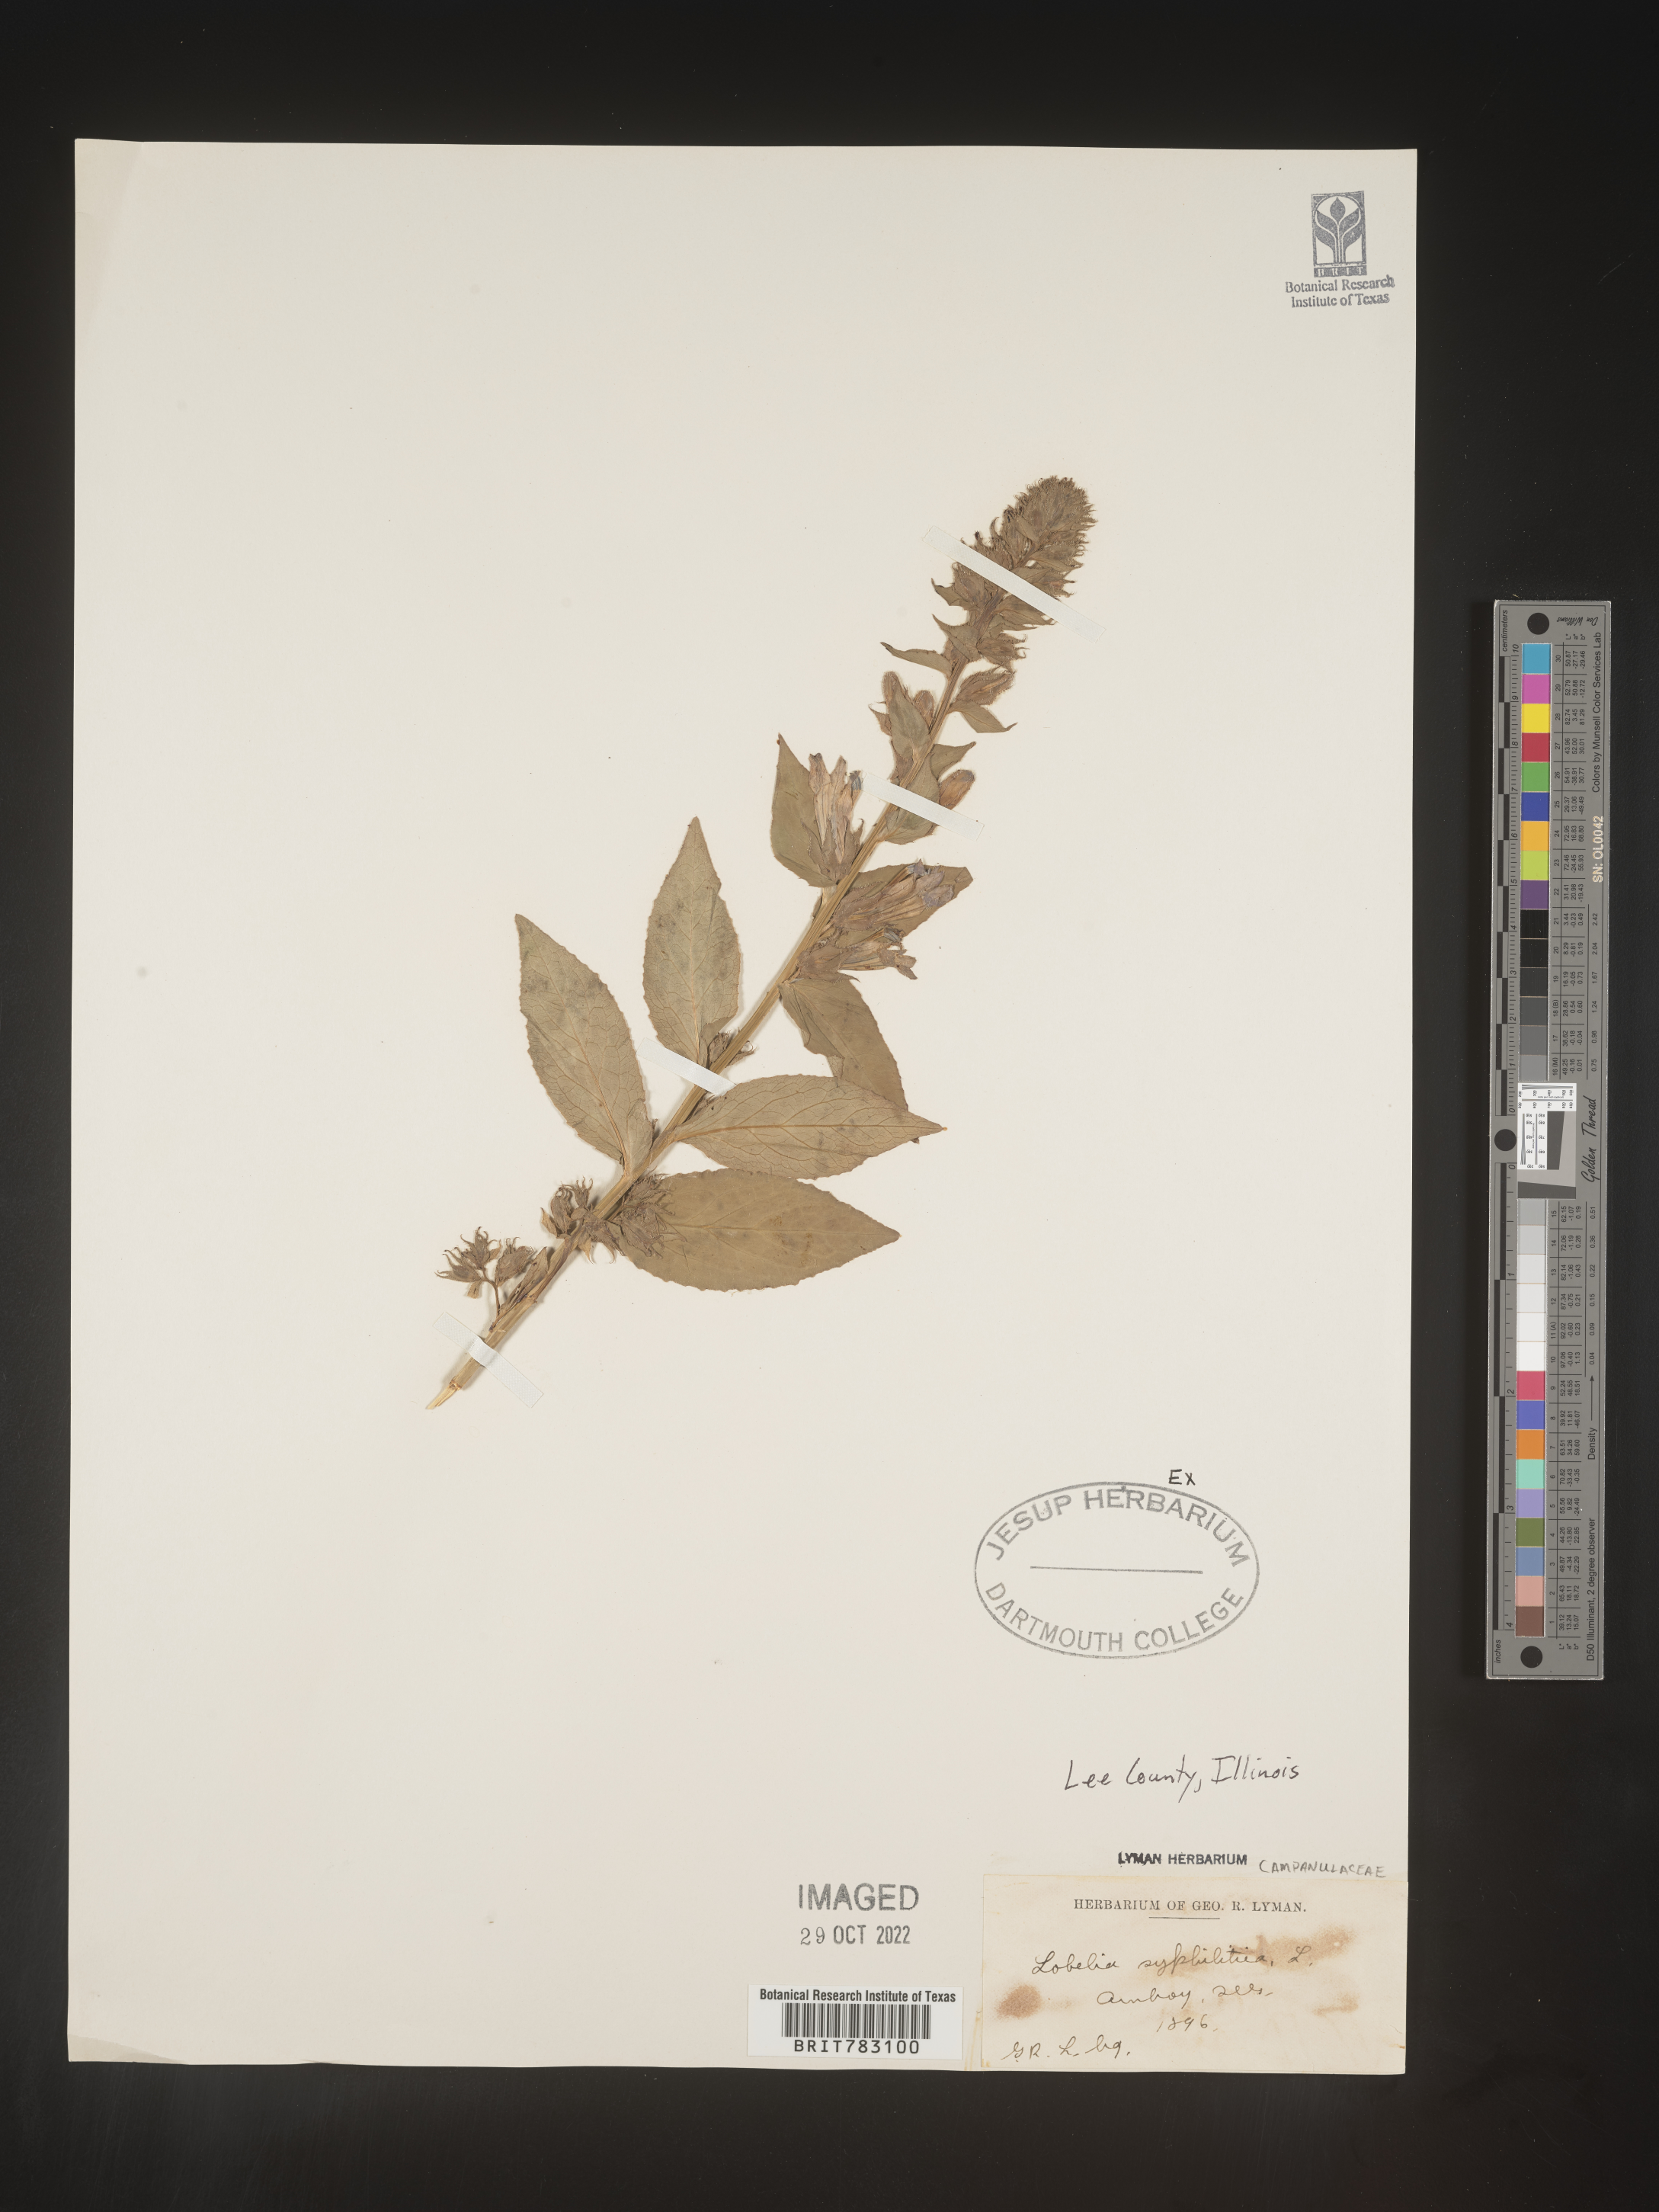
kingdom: Plantae
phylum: Tracheophyta
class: Magnoliopsida
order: Asterales
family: Campanulaceae
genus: Lobelia
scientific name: Lobelia siphilitica
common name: Great lobelia
